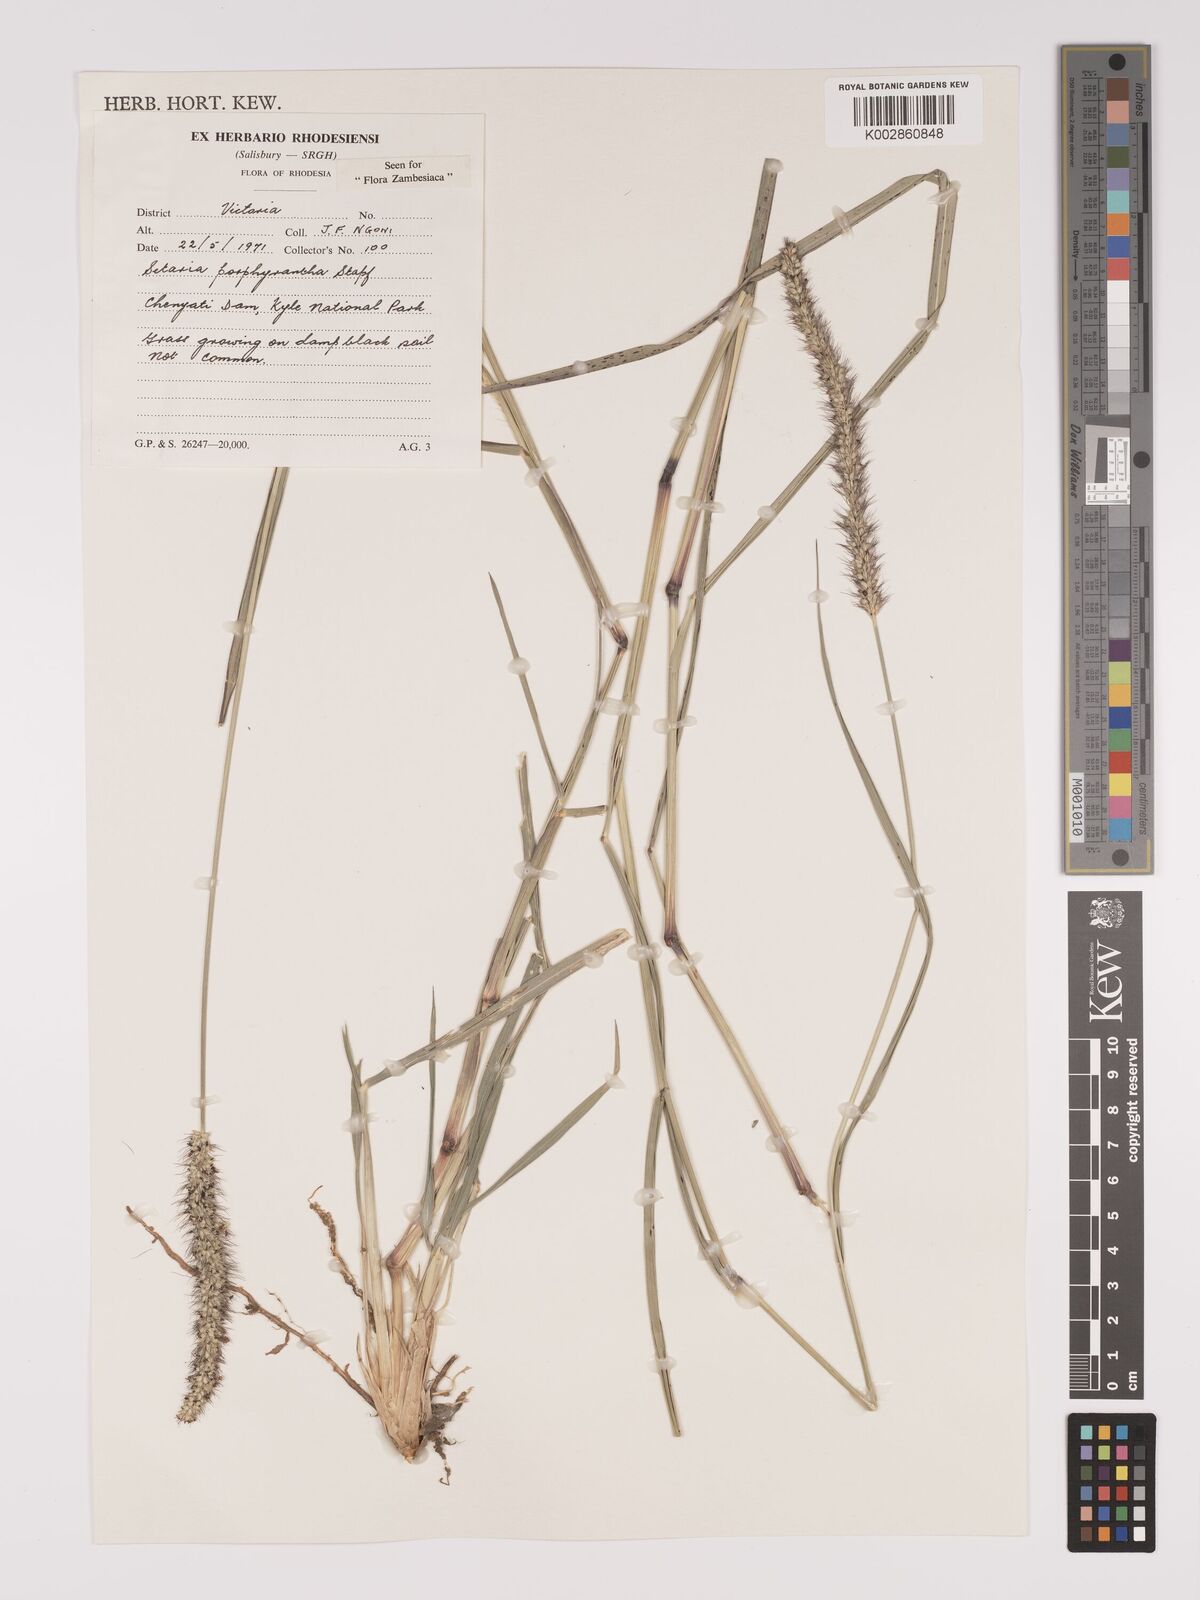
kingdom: Plantae
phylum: Tracheophyta
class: Liliopsida
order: Poales
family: Poaceae
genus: Setaria
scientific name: Setaria incrassata
